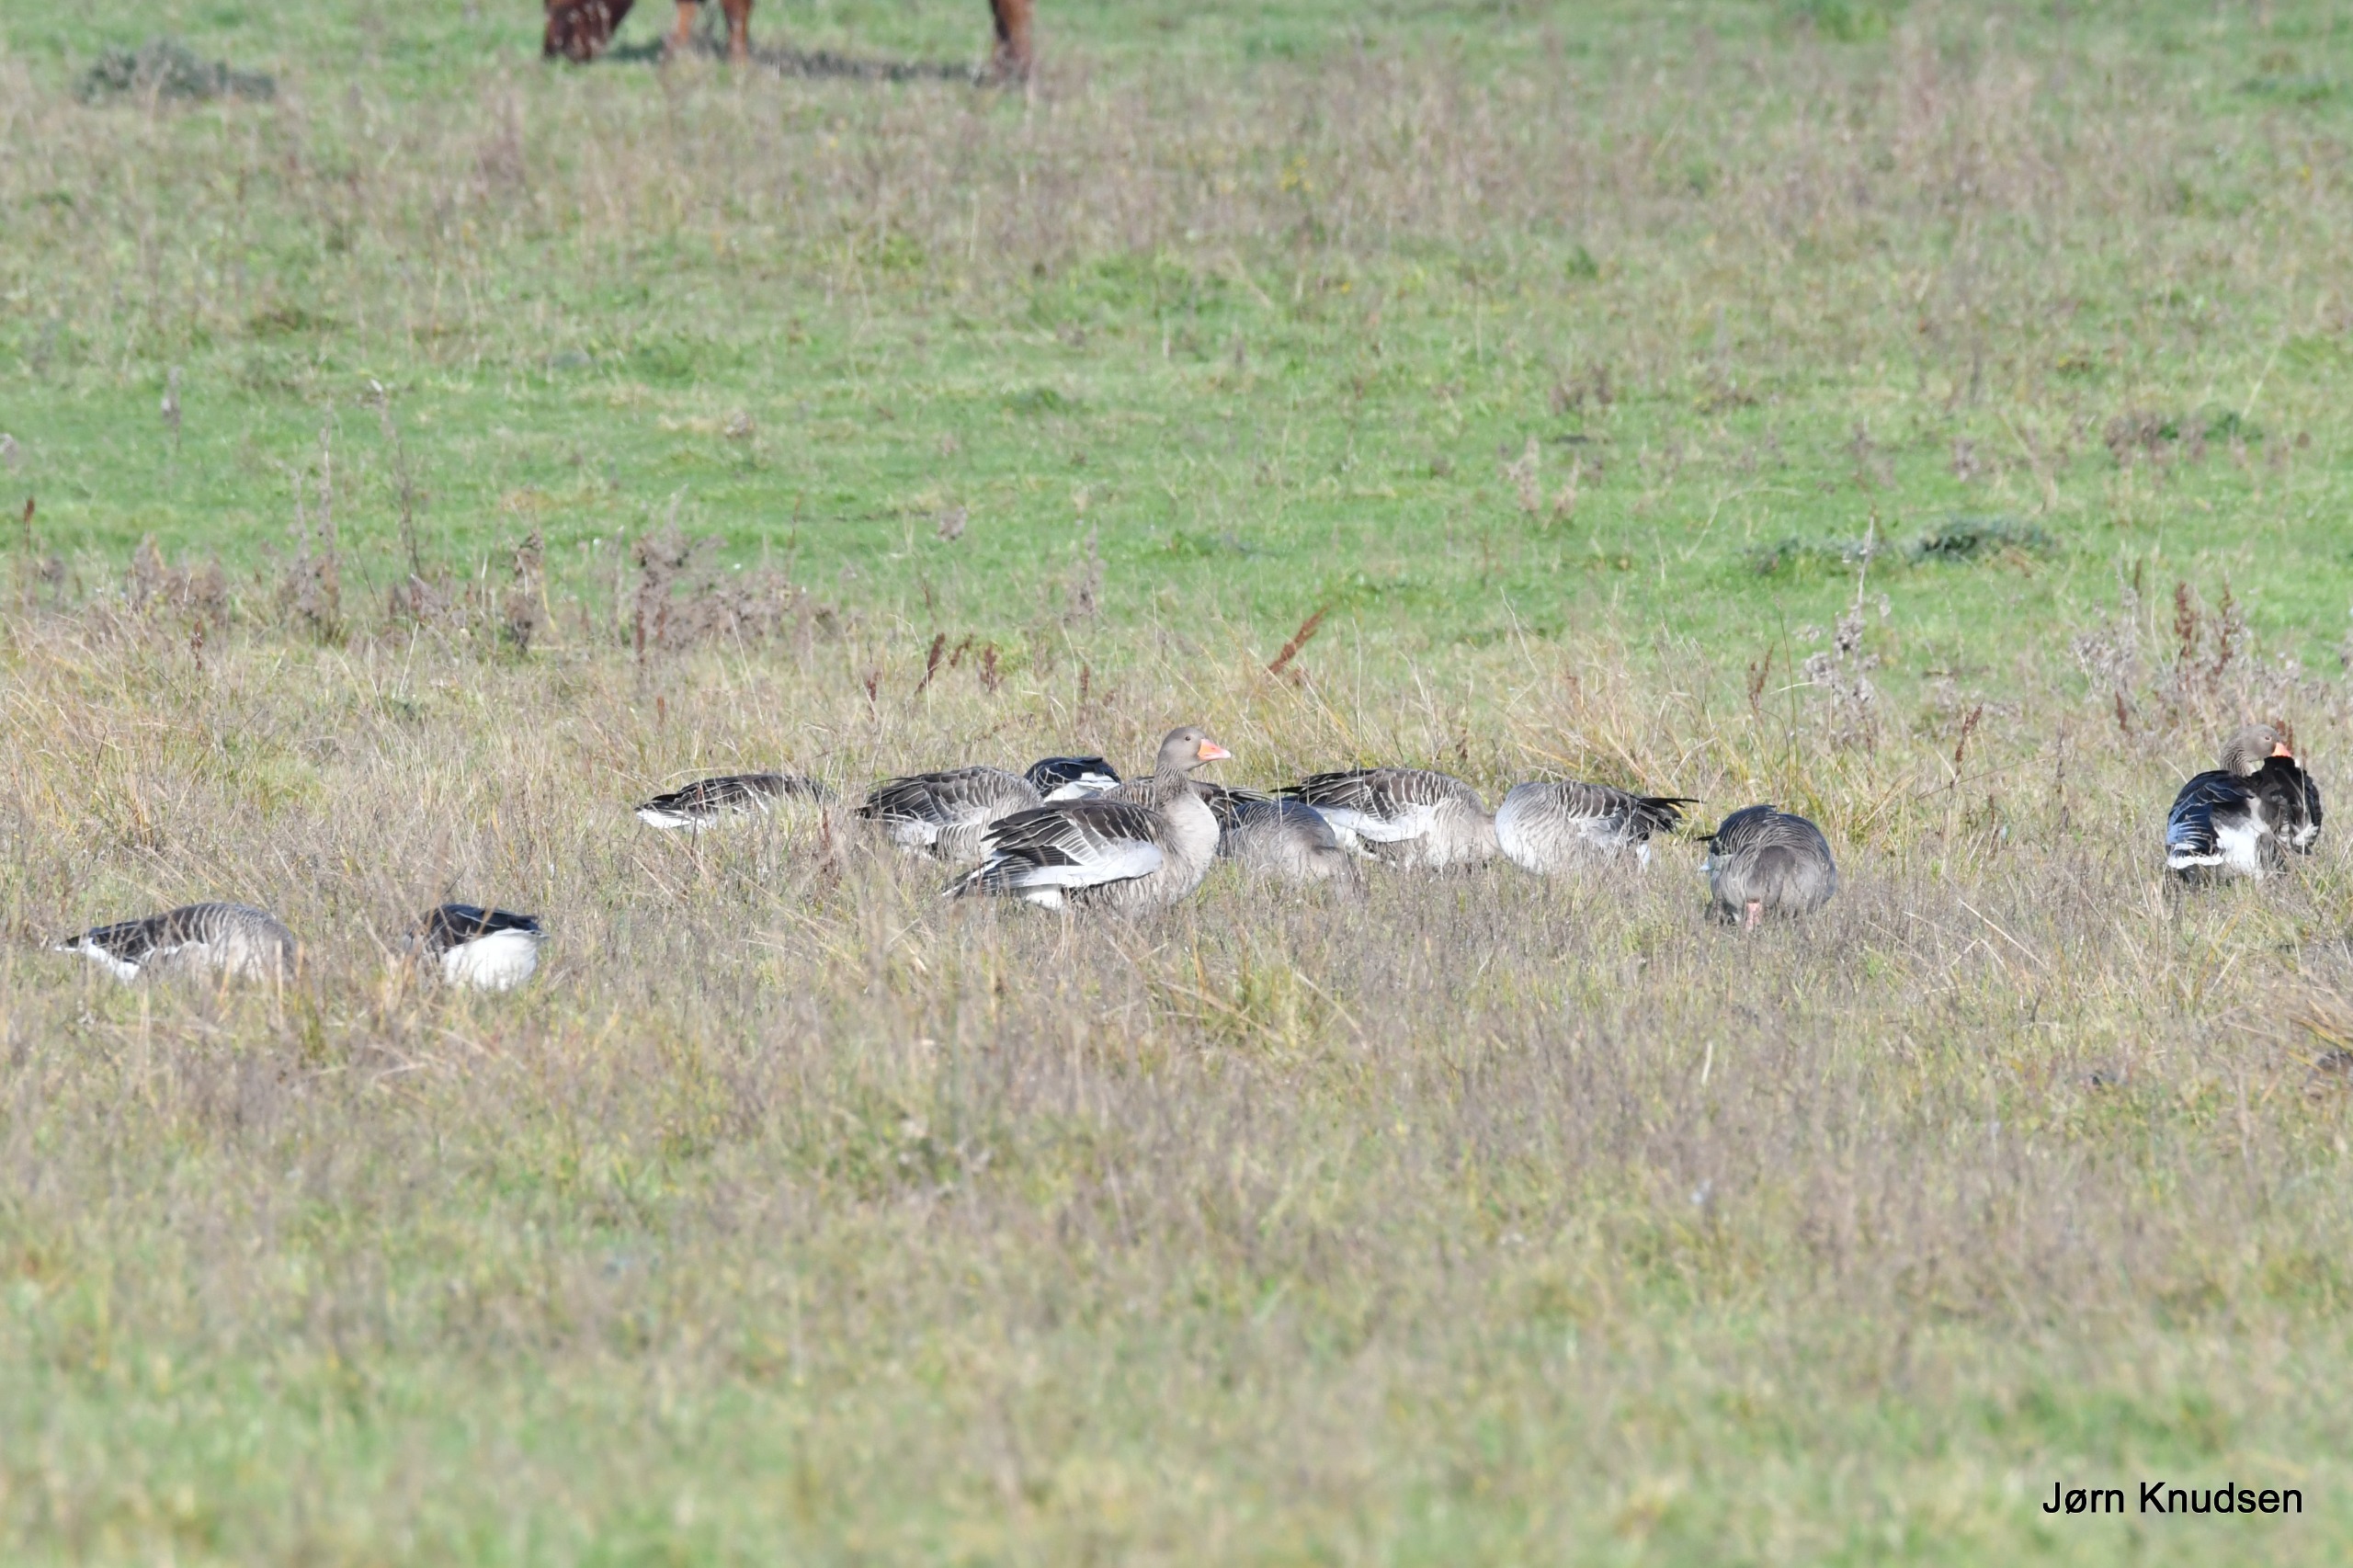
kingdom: Animalia
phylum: Chordata
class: Aves
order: Anseriformes
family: Anatidae
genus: Anser
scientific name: Anser anser
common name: Grågås
